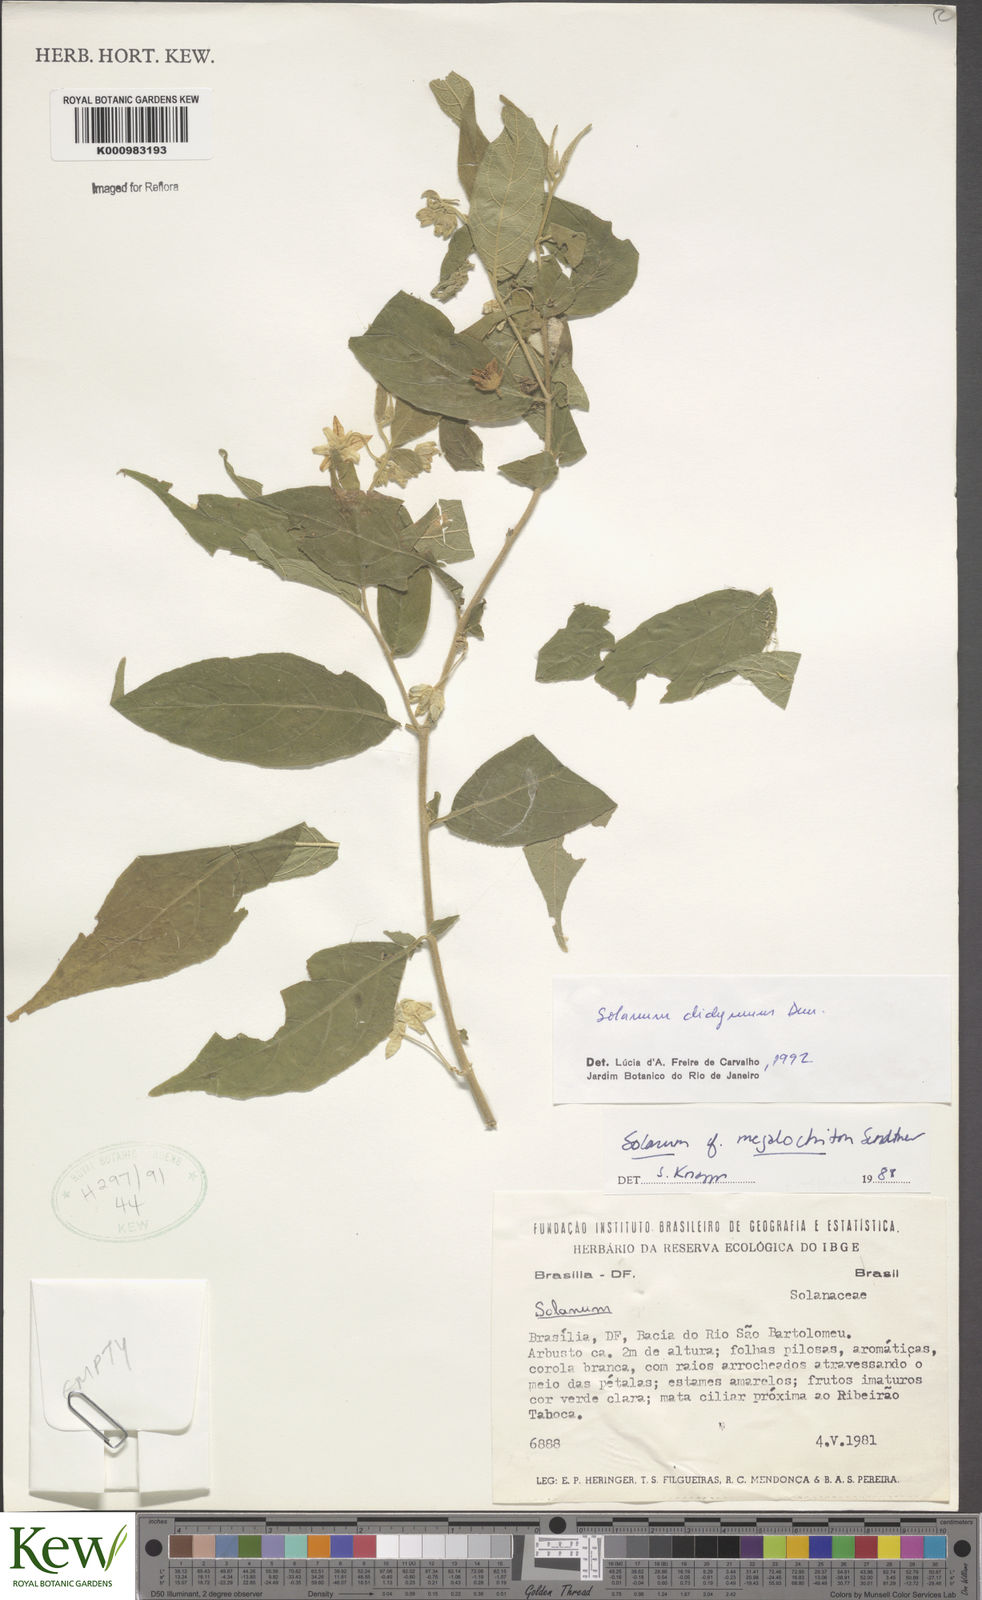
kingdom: Plantae
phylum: Tracheophyta
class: Magnoliopsida
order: Solanales
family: Solanaceae
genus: Solanum
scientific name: Solanum didymum
